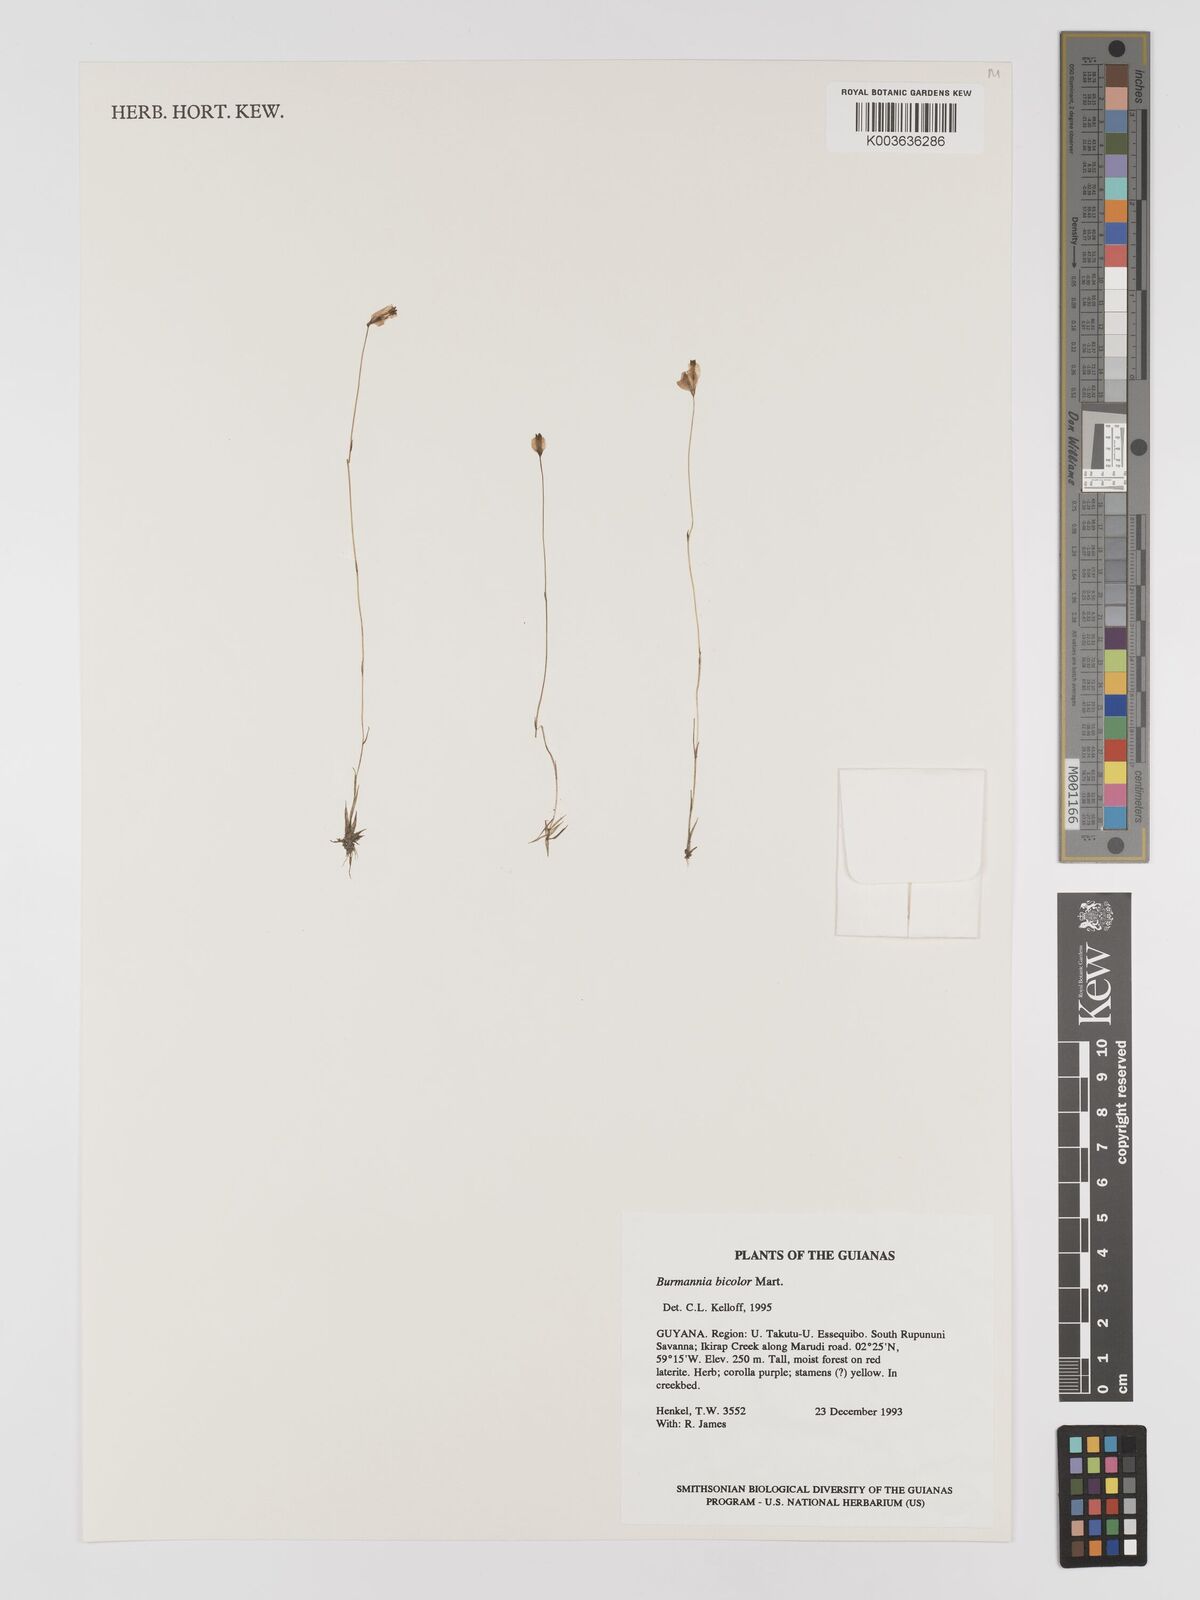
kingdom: Plantae
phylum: Tracheophyta
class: Liliopsida
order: Dioscoreales
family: Burmanniaceae
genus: Burmannia
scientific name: Burmannia bicolor
